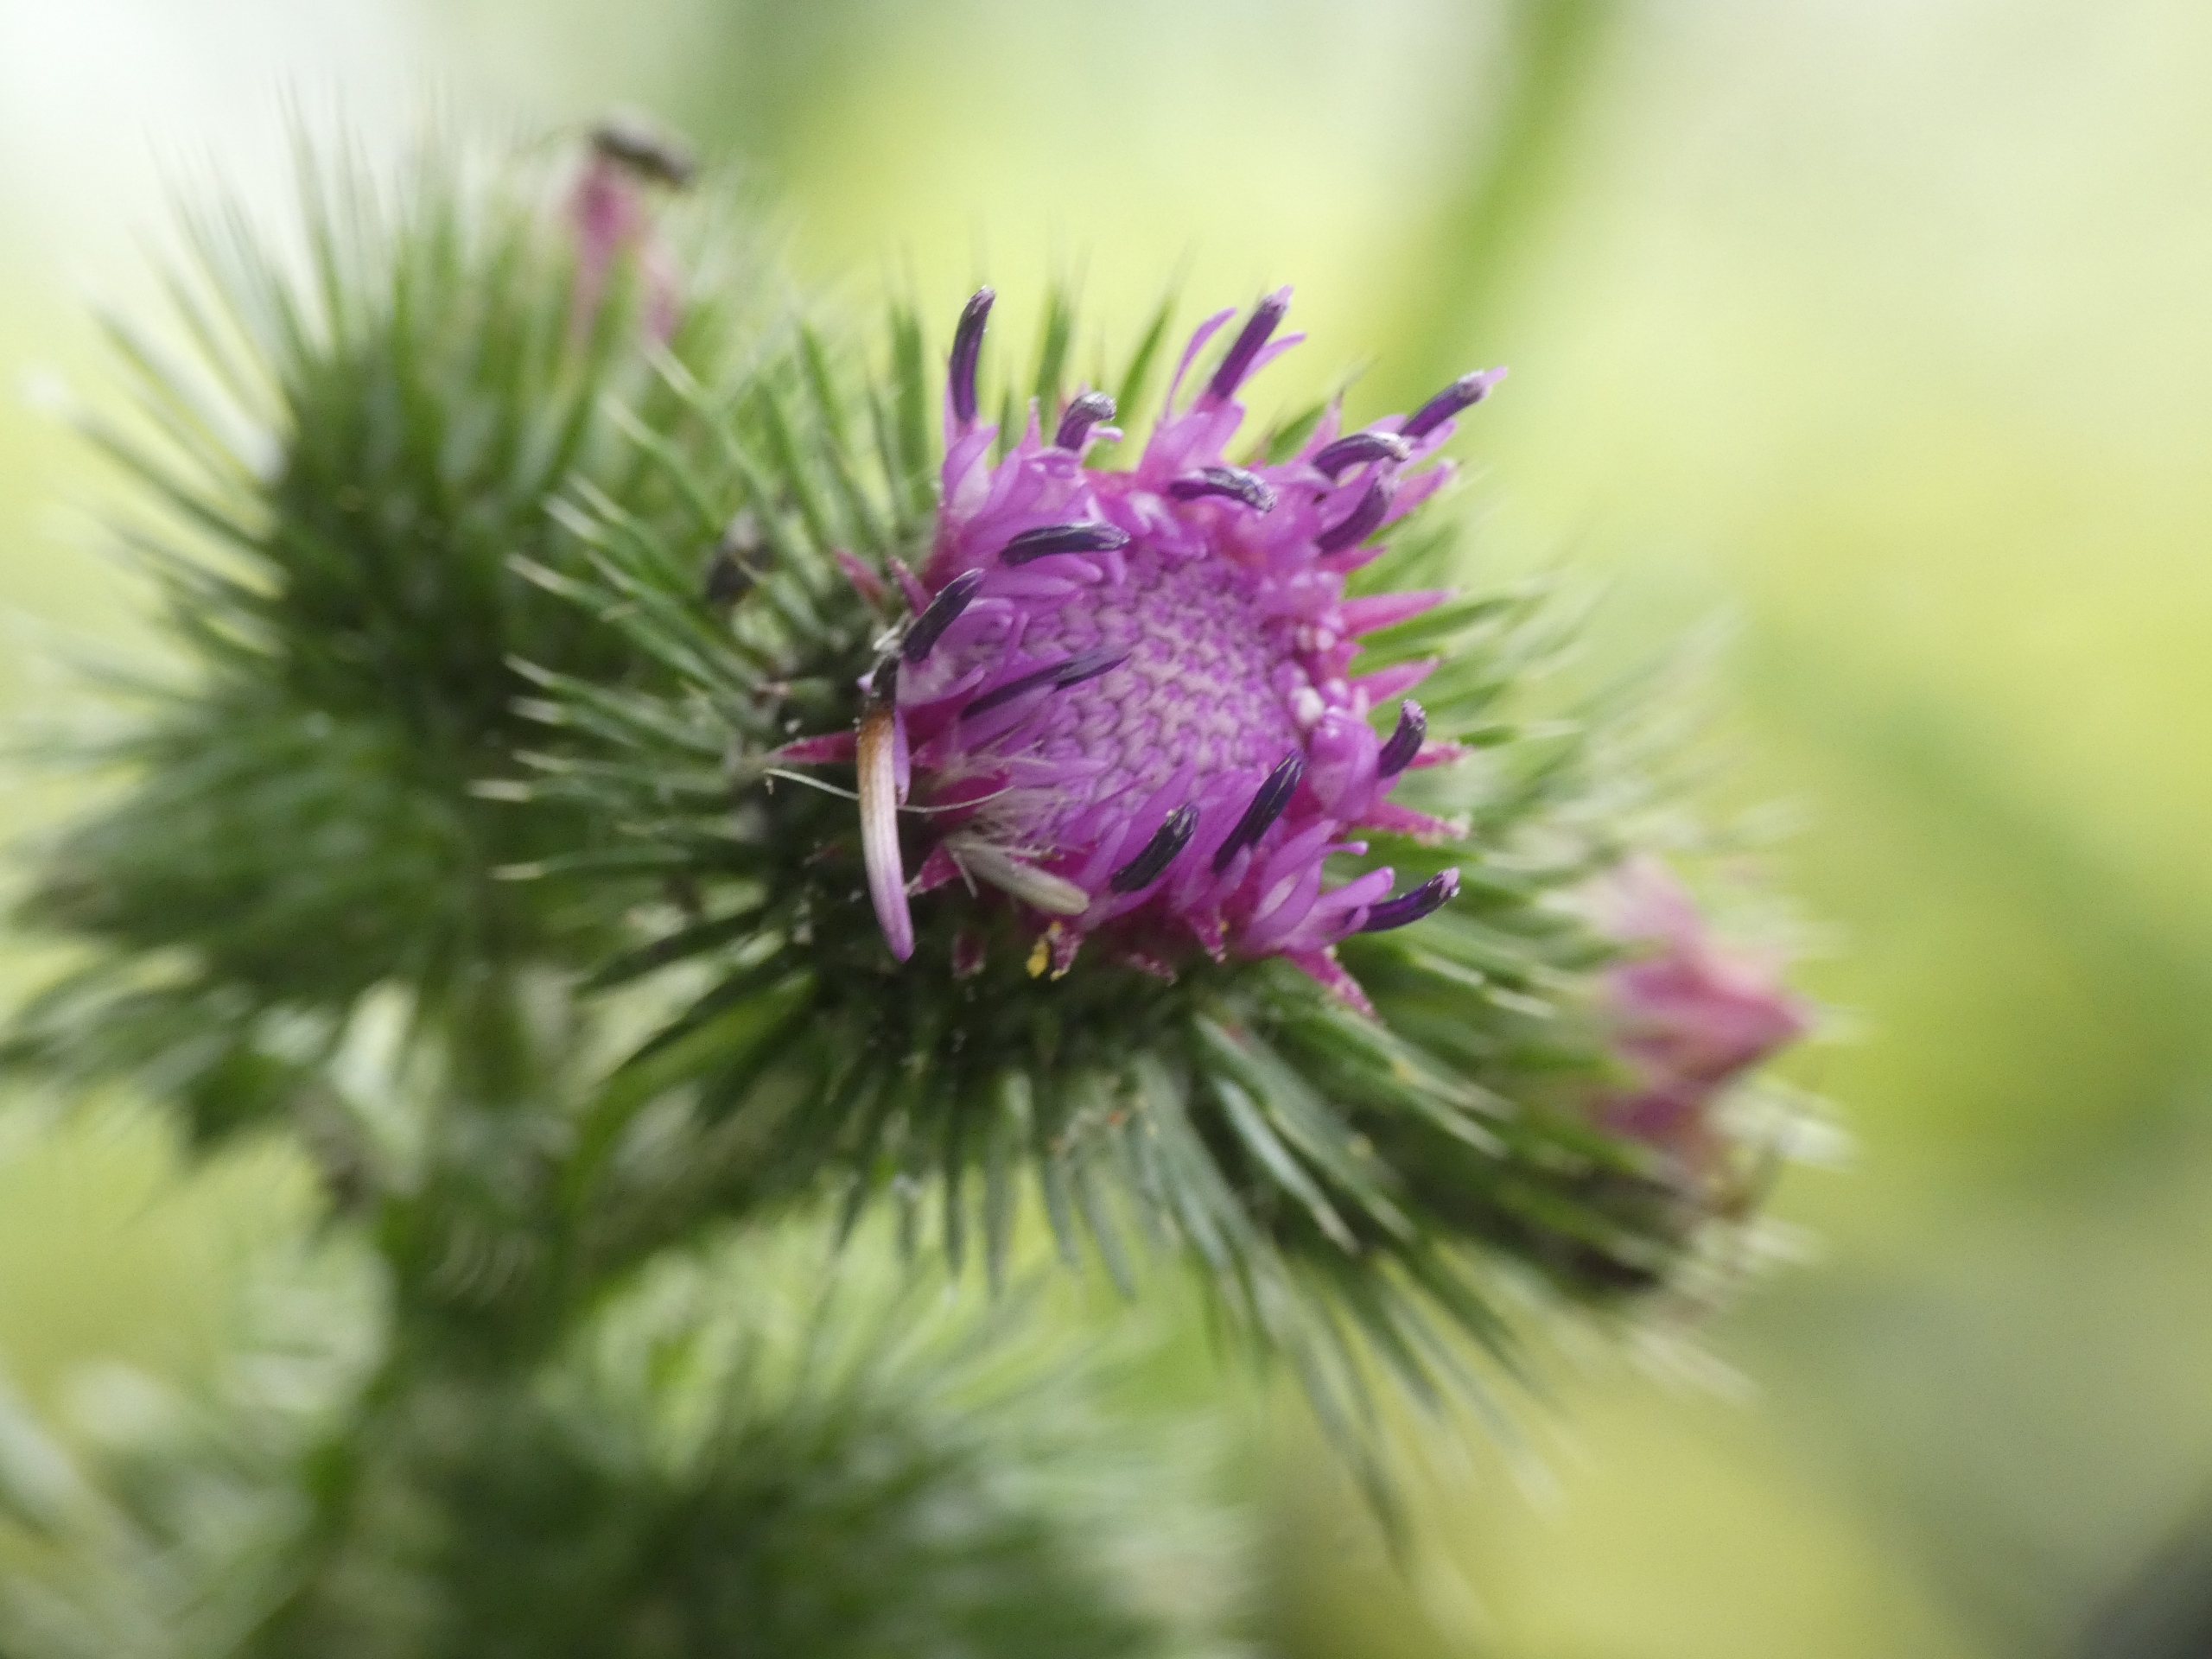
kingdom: Plantae
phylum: Tracheophyta
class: Magnoliopsida
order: Asterales
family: Asteraceae
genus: Carduus
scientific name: Carduus crispus
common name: Kruset tidsel
